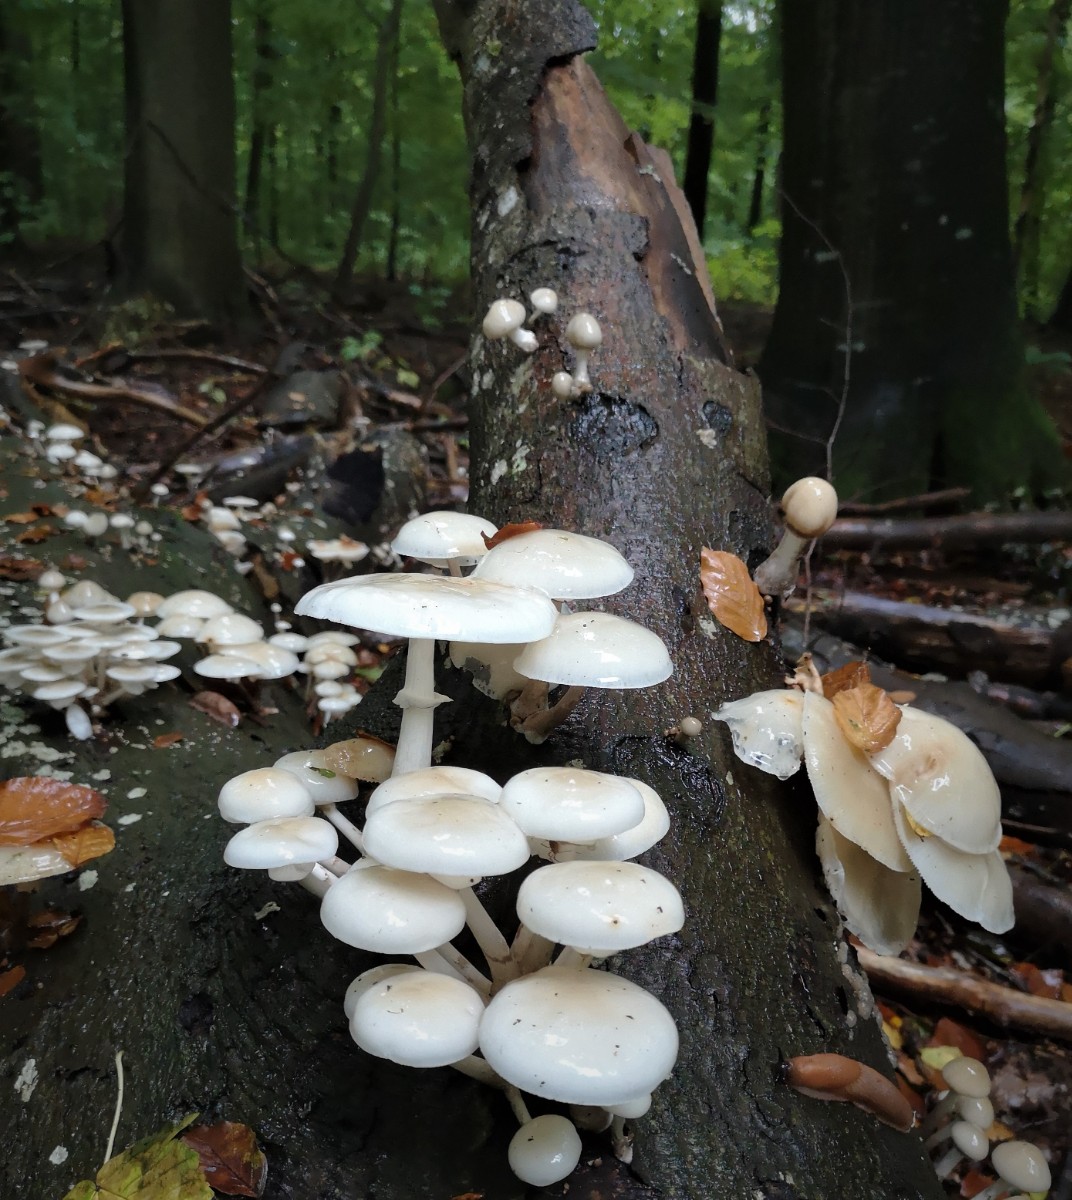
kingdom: Fungi
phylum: Basidiomycota
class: Agaricomycetes
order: Agaricales
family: Physalacriaceae
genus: Mucidula
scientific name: Mucidula mucida
